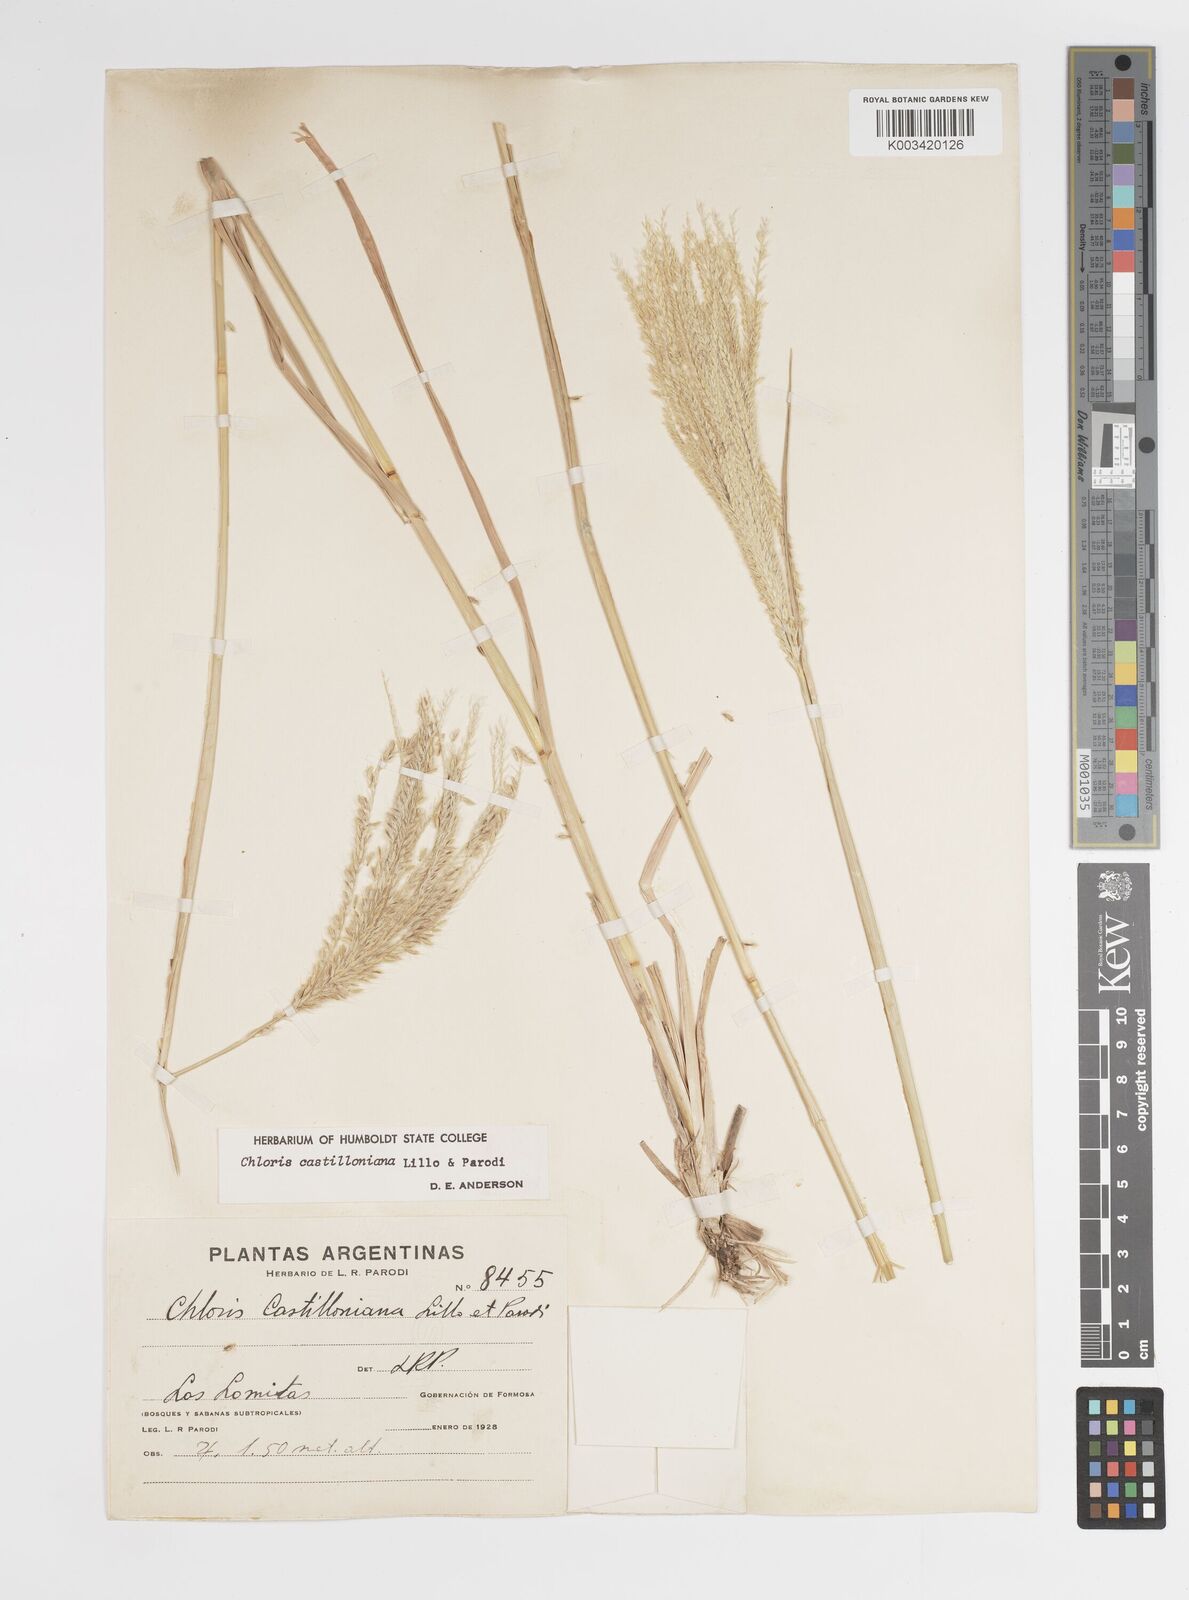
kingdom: Plantae
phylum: Tracheophyta
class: Liliopsida
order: Poales
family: Poaceae
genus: Chloris
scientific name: Chloris castilloniana
